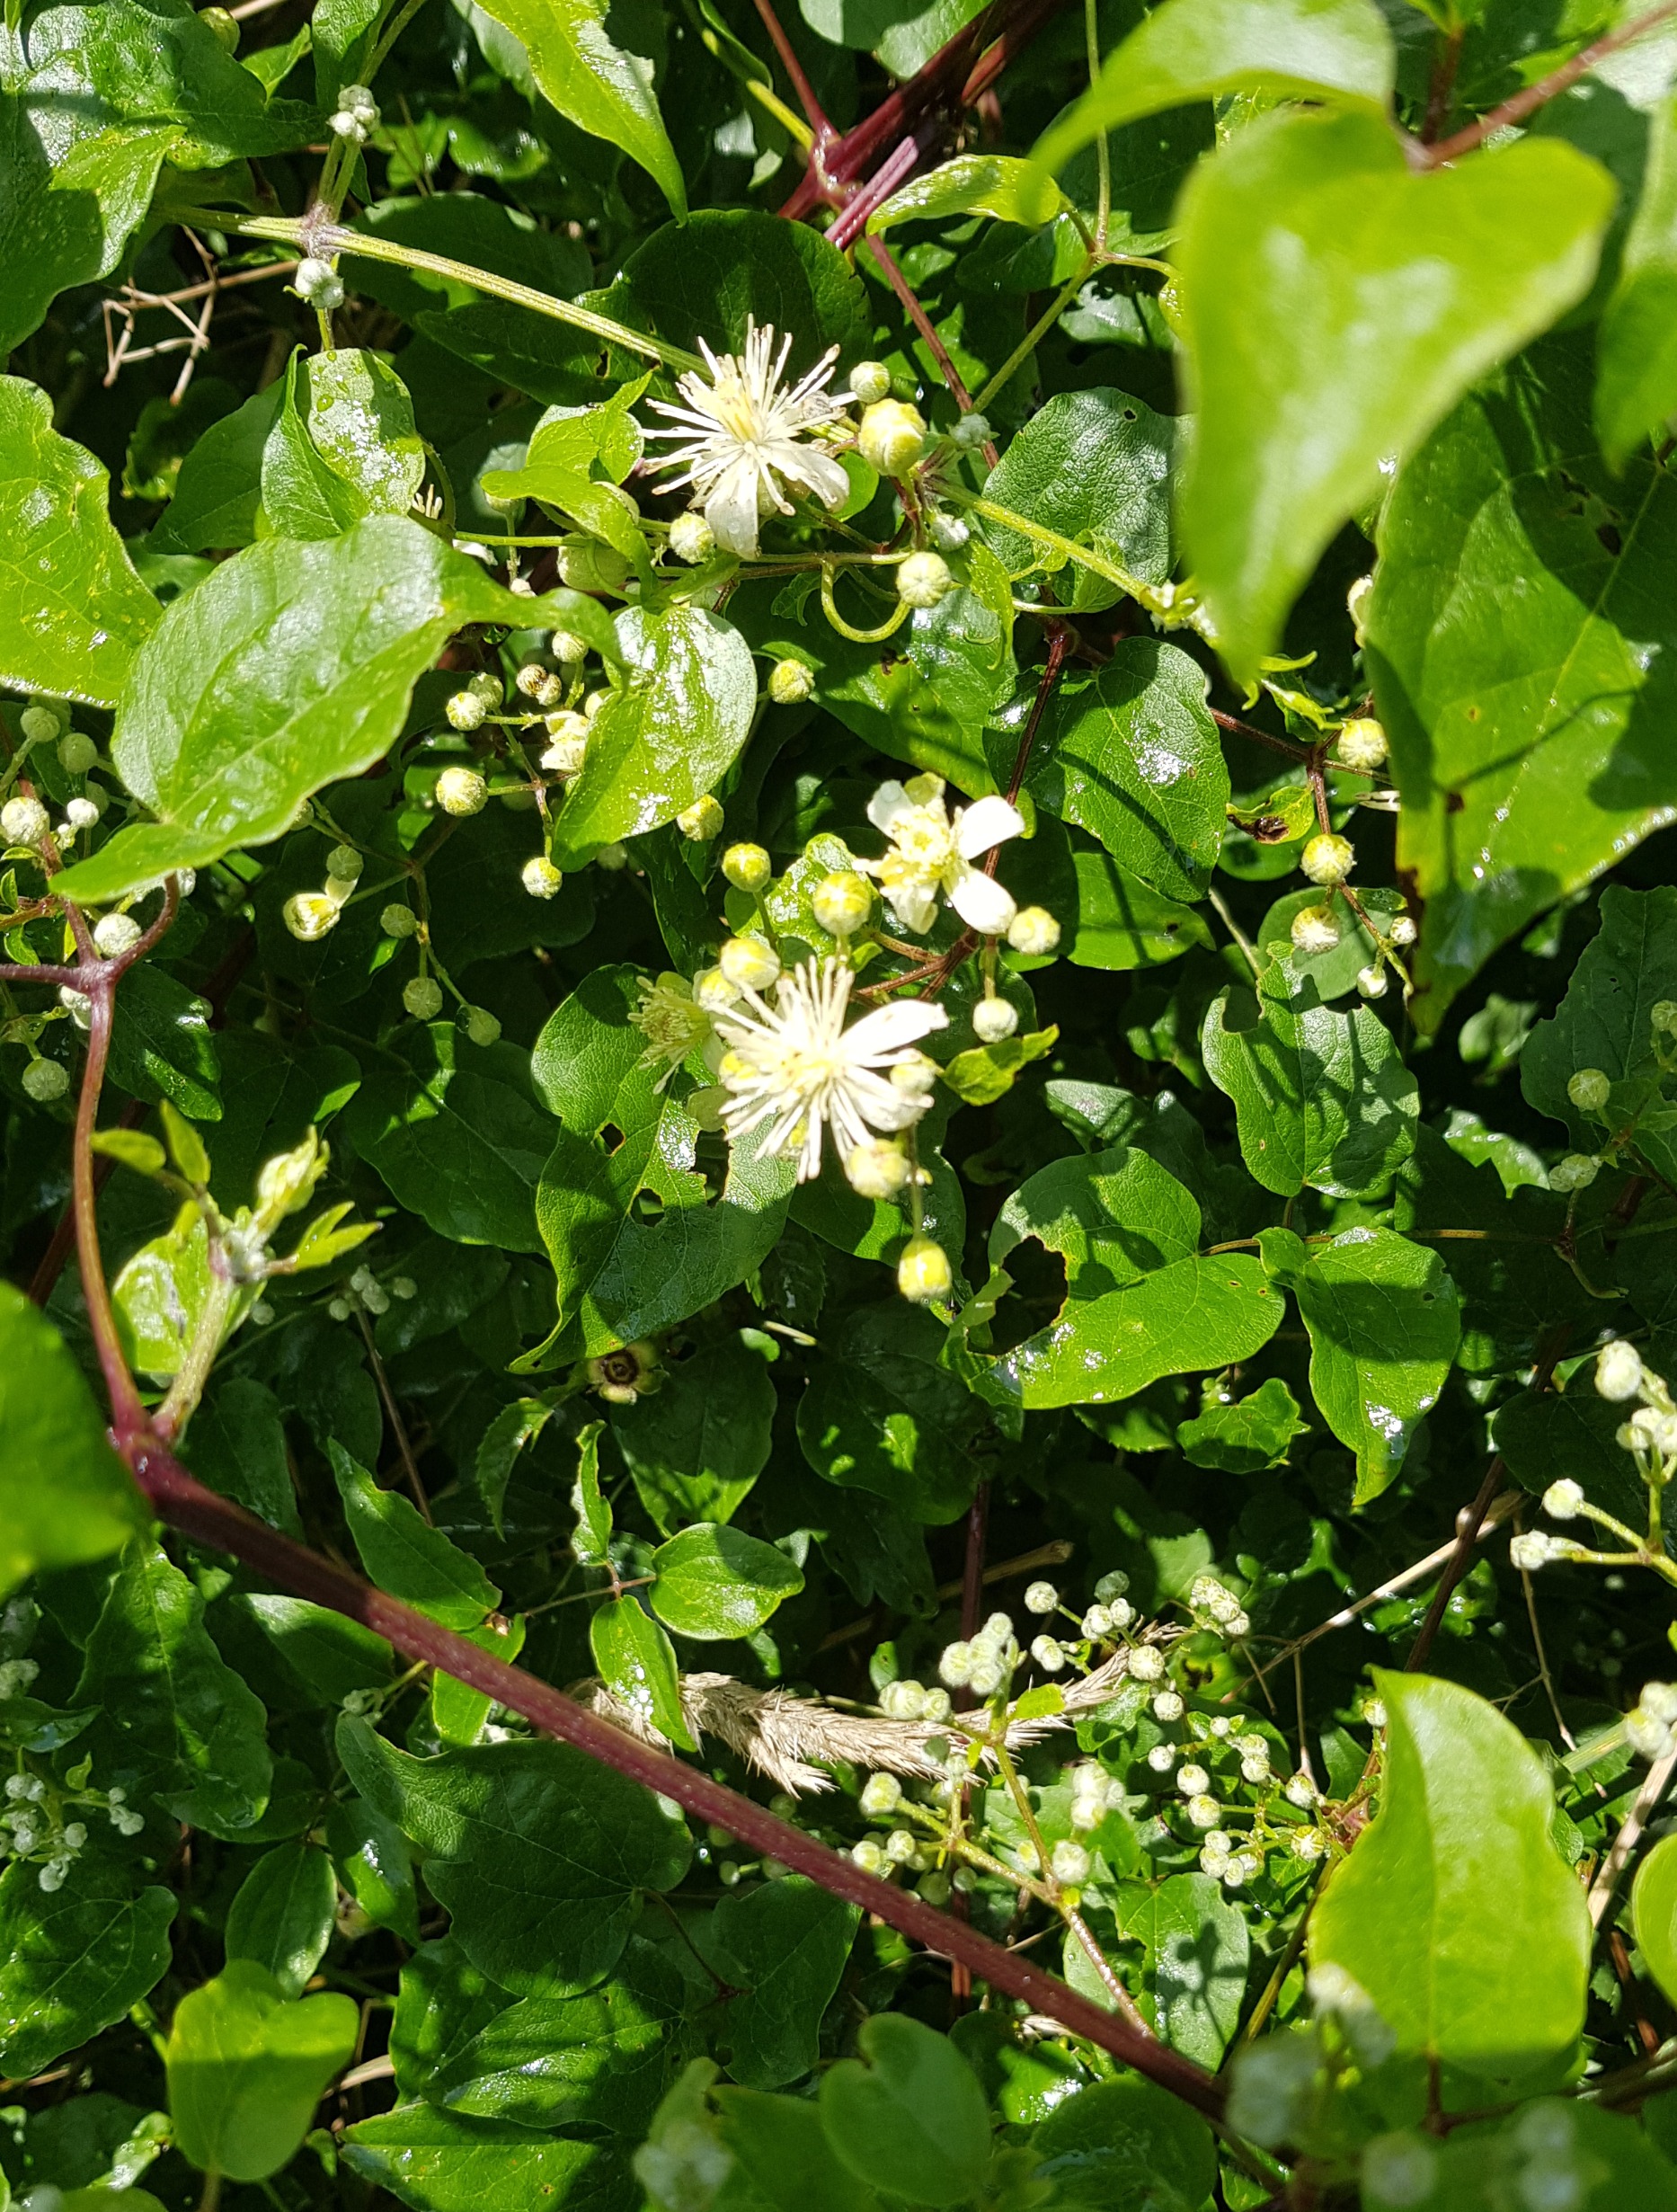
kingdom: Plantae
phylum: Tracheophyta
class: Magnoliopsida
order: Ranunculales
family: Ranunculaceae
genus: Clematis
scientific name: Clematis vitalba
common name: Skovranke
